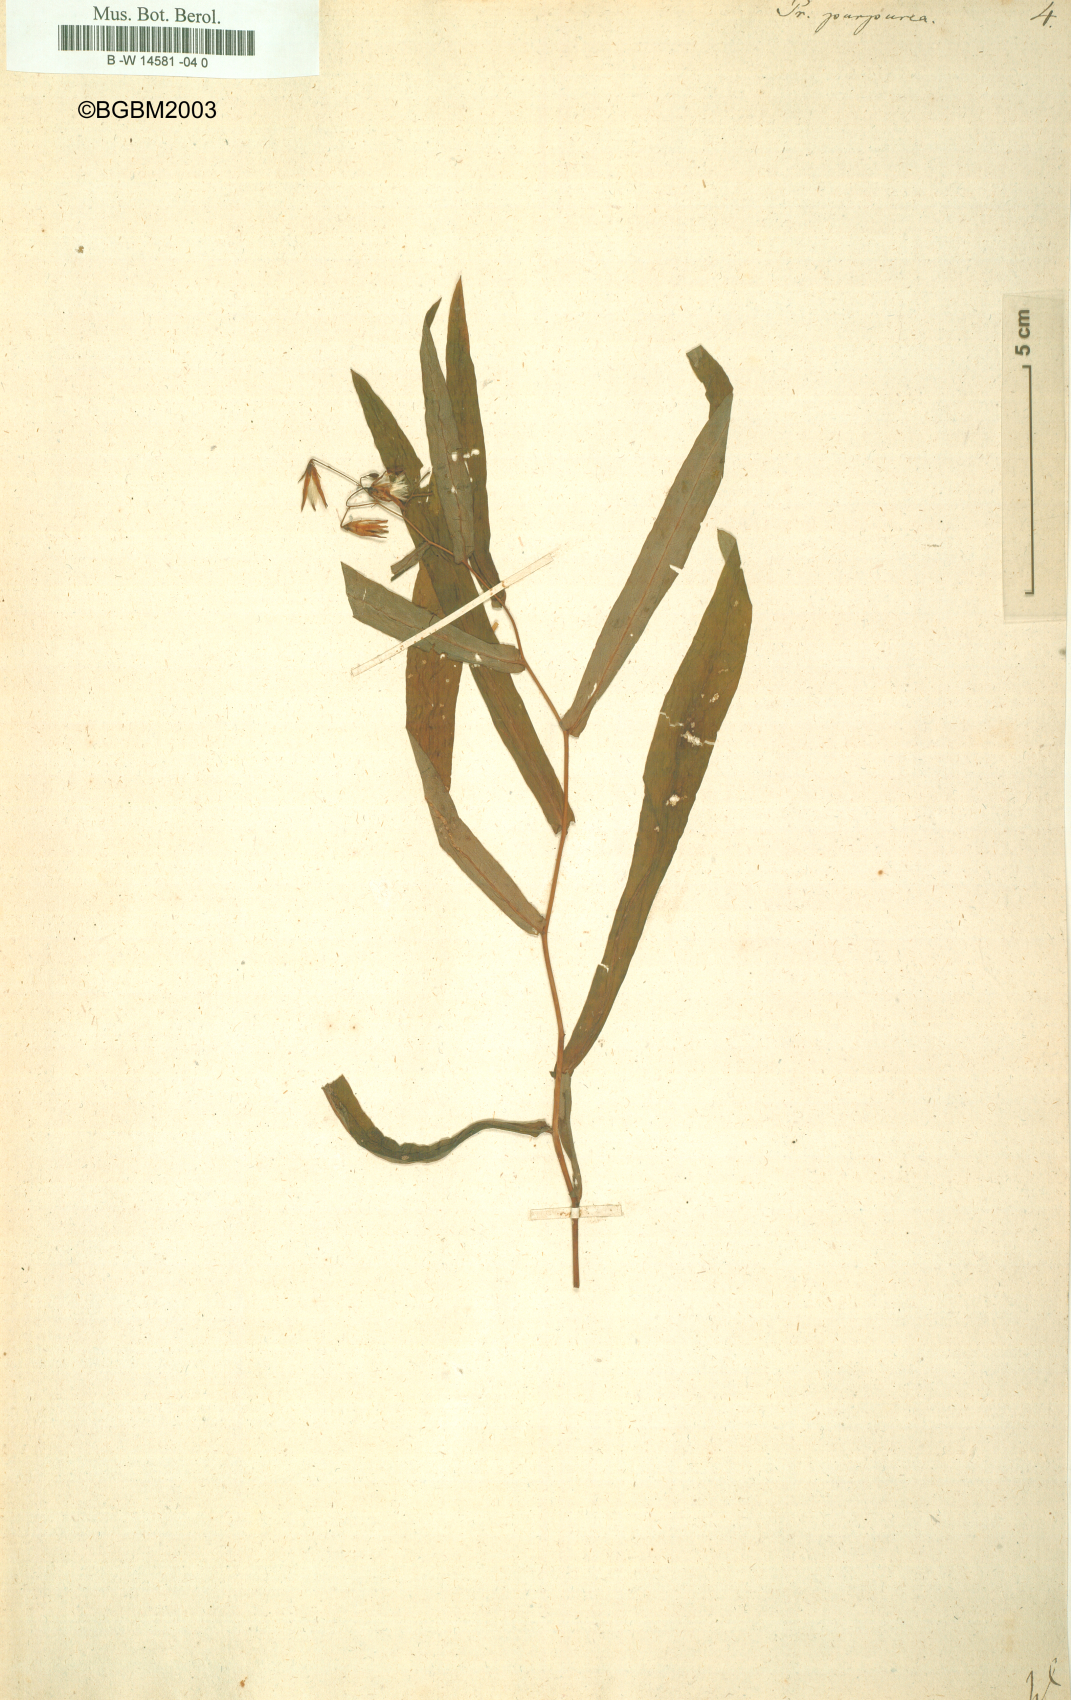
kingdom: Plantae
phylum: Tracheophyta
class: Magnoliopsida
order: Asterales
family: Asteraceae
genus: Prenanthes
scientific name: Prenanthes purpurea
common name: Purple lettuce
